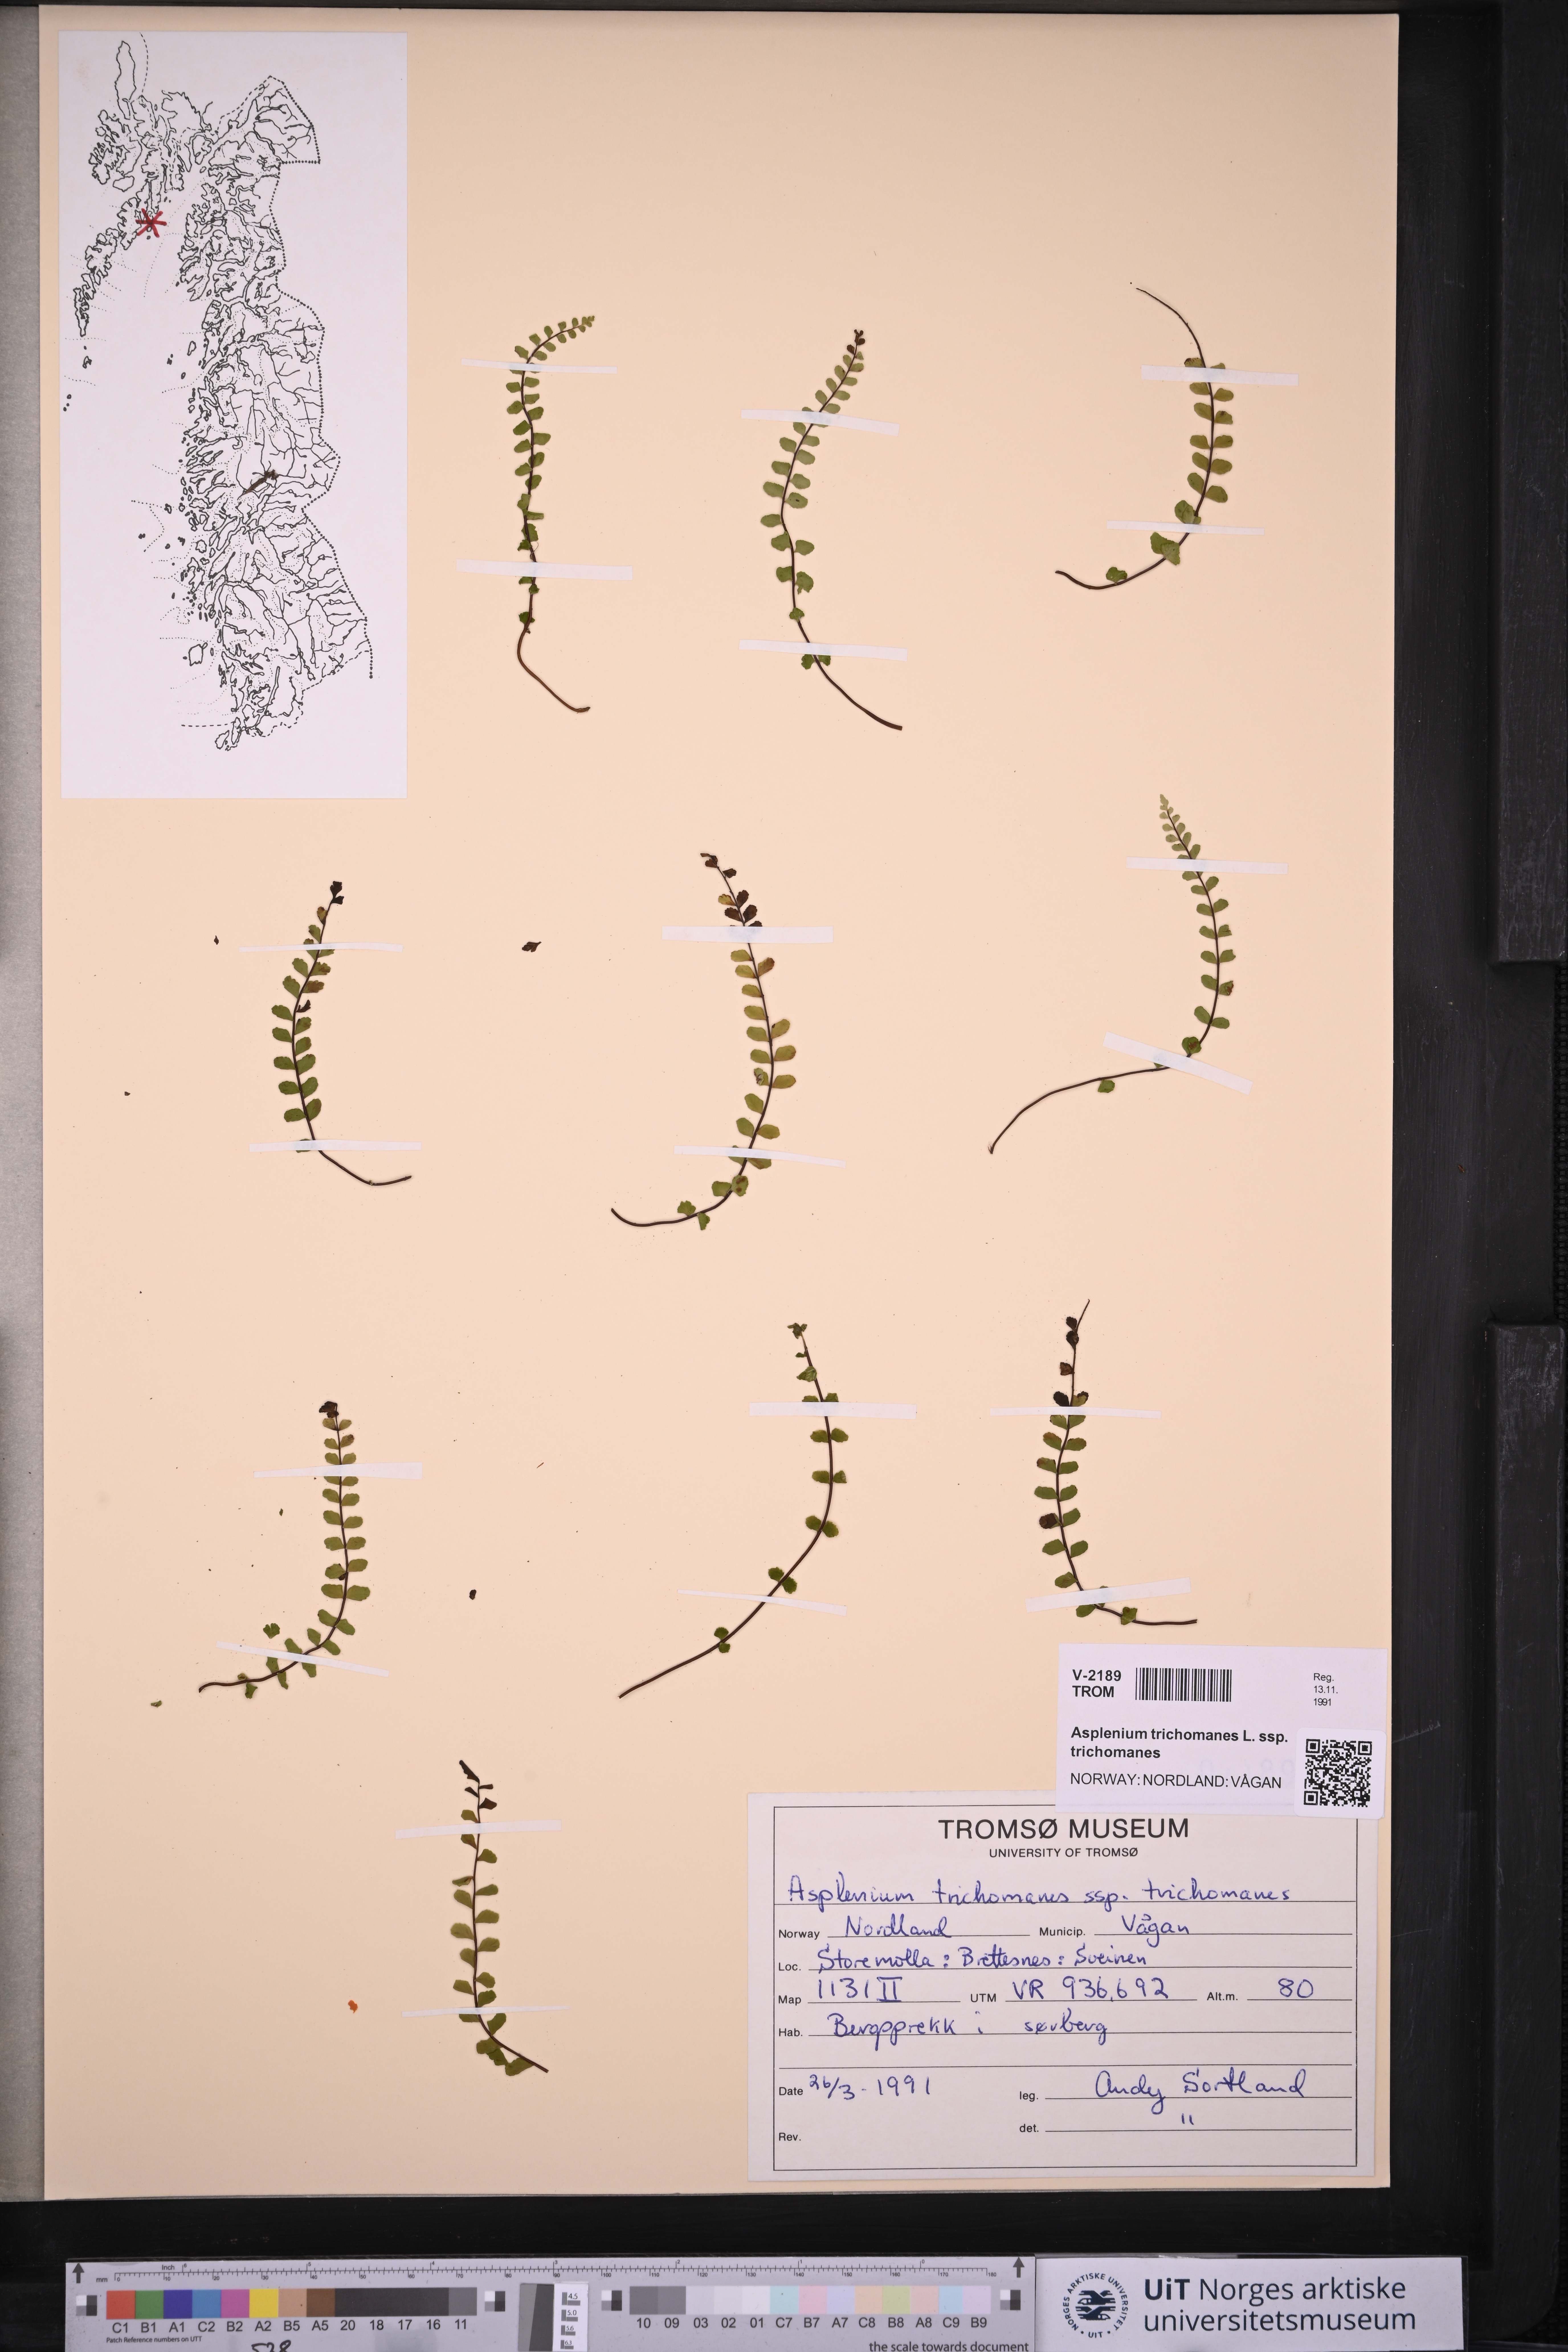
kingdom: Plantae
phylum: Tracheophyta
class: Polypodiopsida
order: Polypodiales
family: Aspleniaceae
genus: Asplenium
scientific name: Asplenium trichomanes
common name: Maidenhair spleenwort
